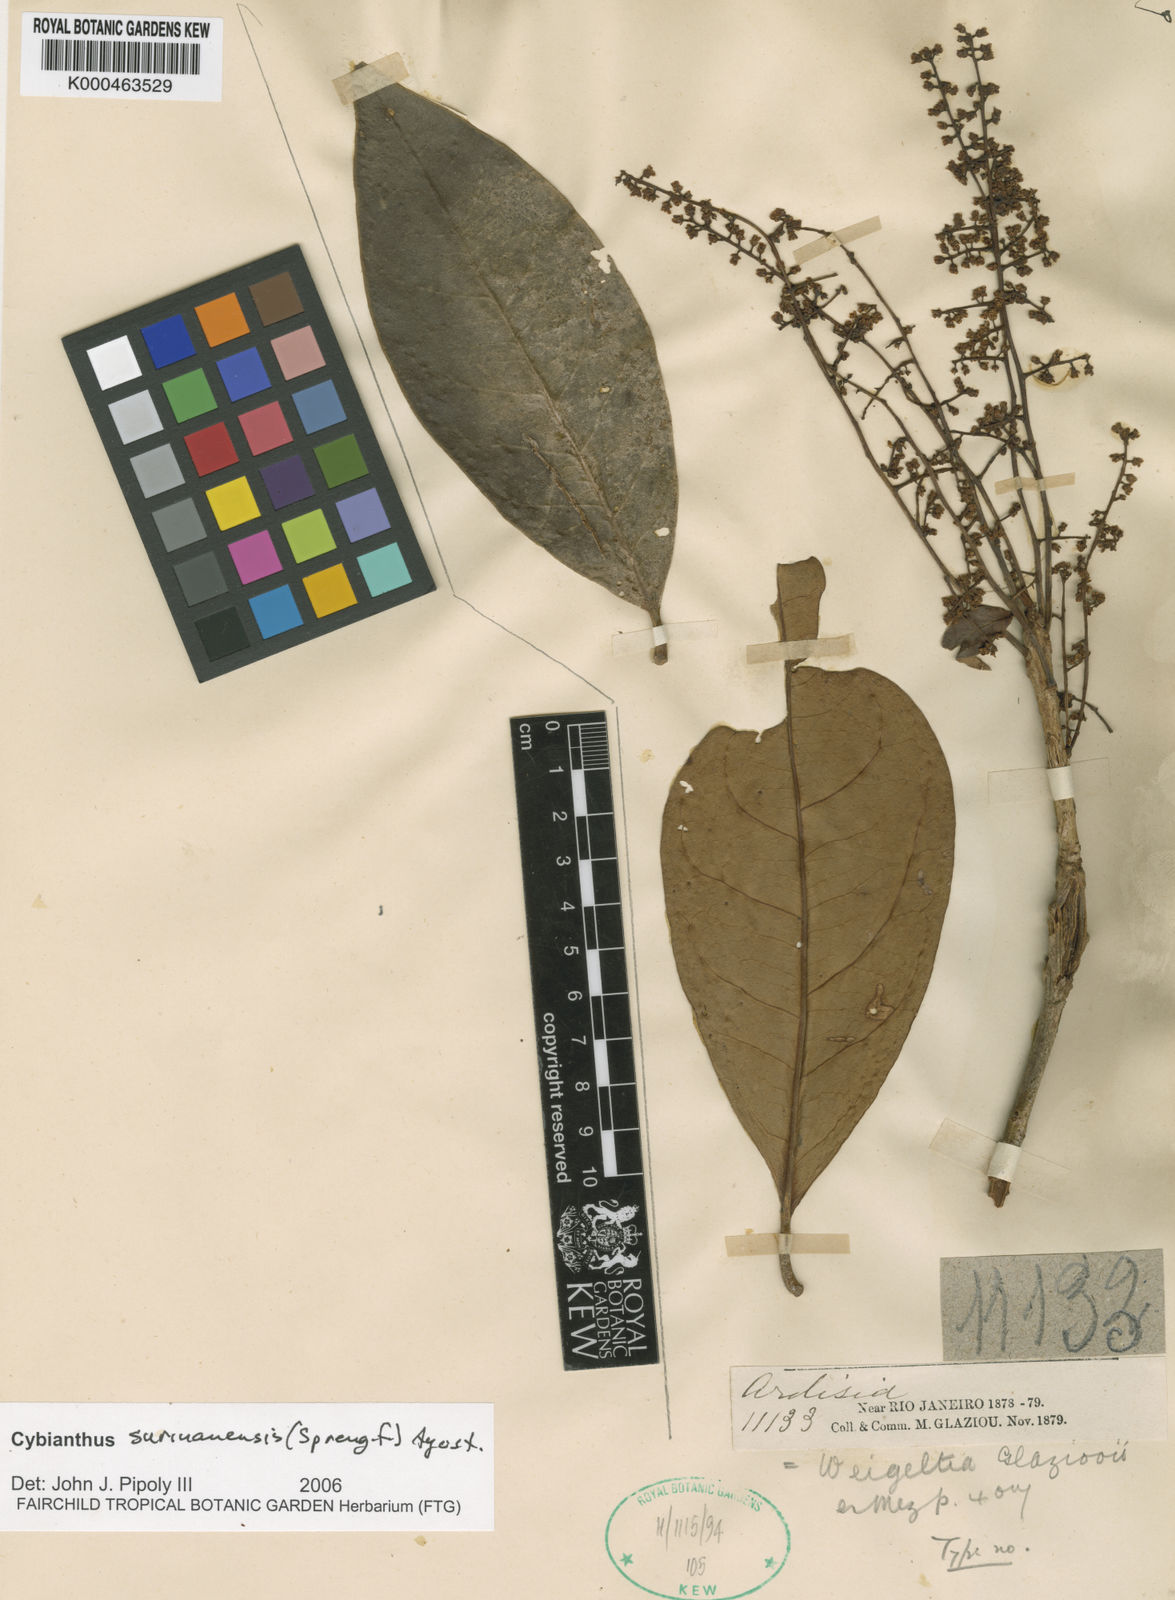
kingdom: Plantae
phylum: Tracheophyta
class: Magnoliopsida
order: Ericales
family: Primulaceae
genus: Cybianthus
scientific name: Cybianthus surinamensis
